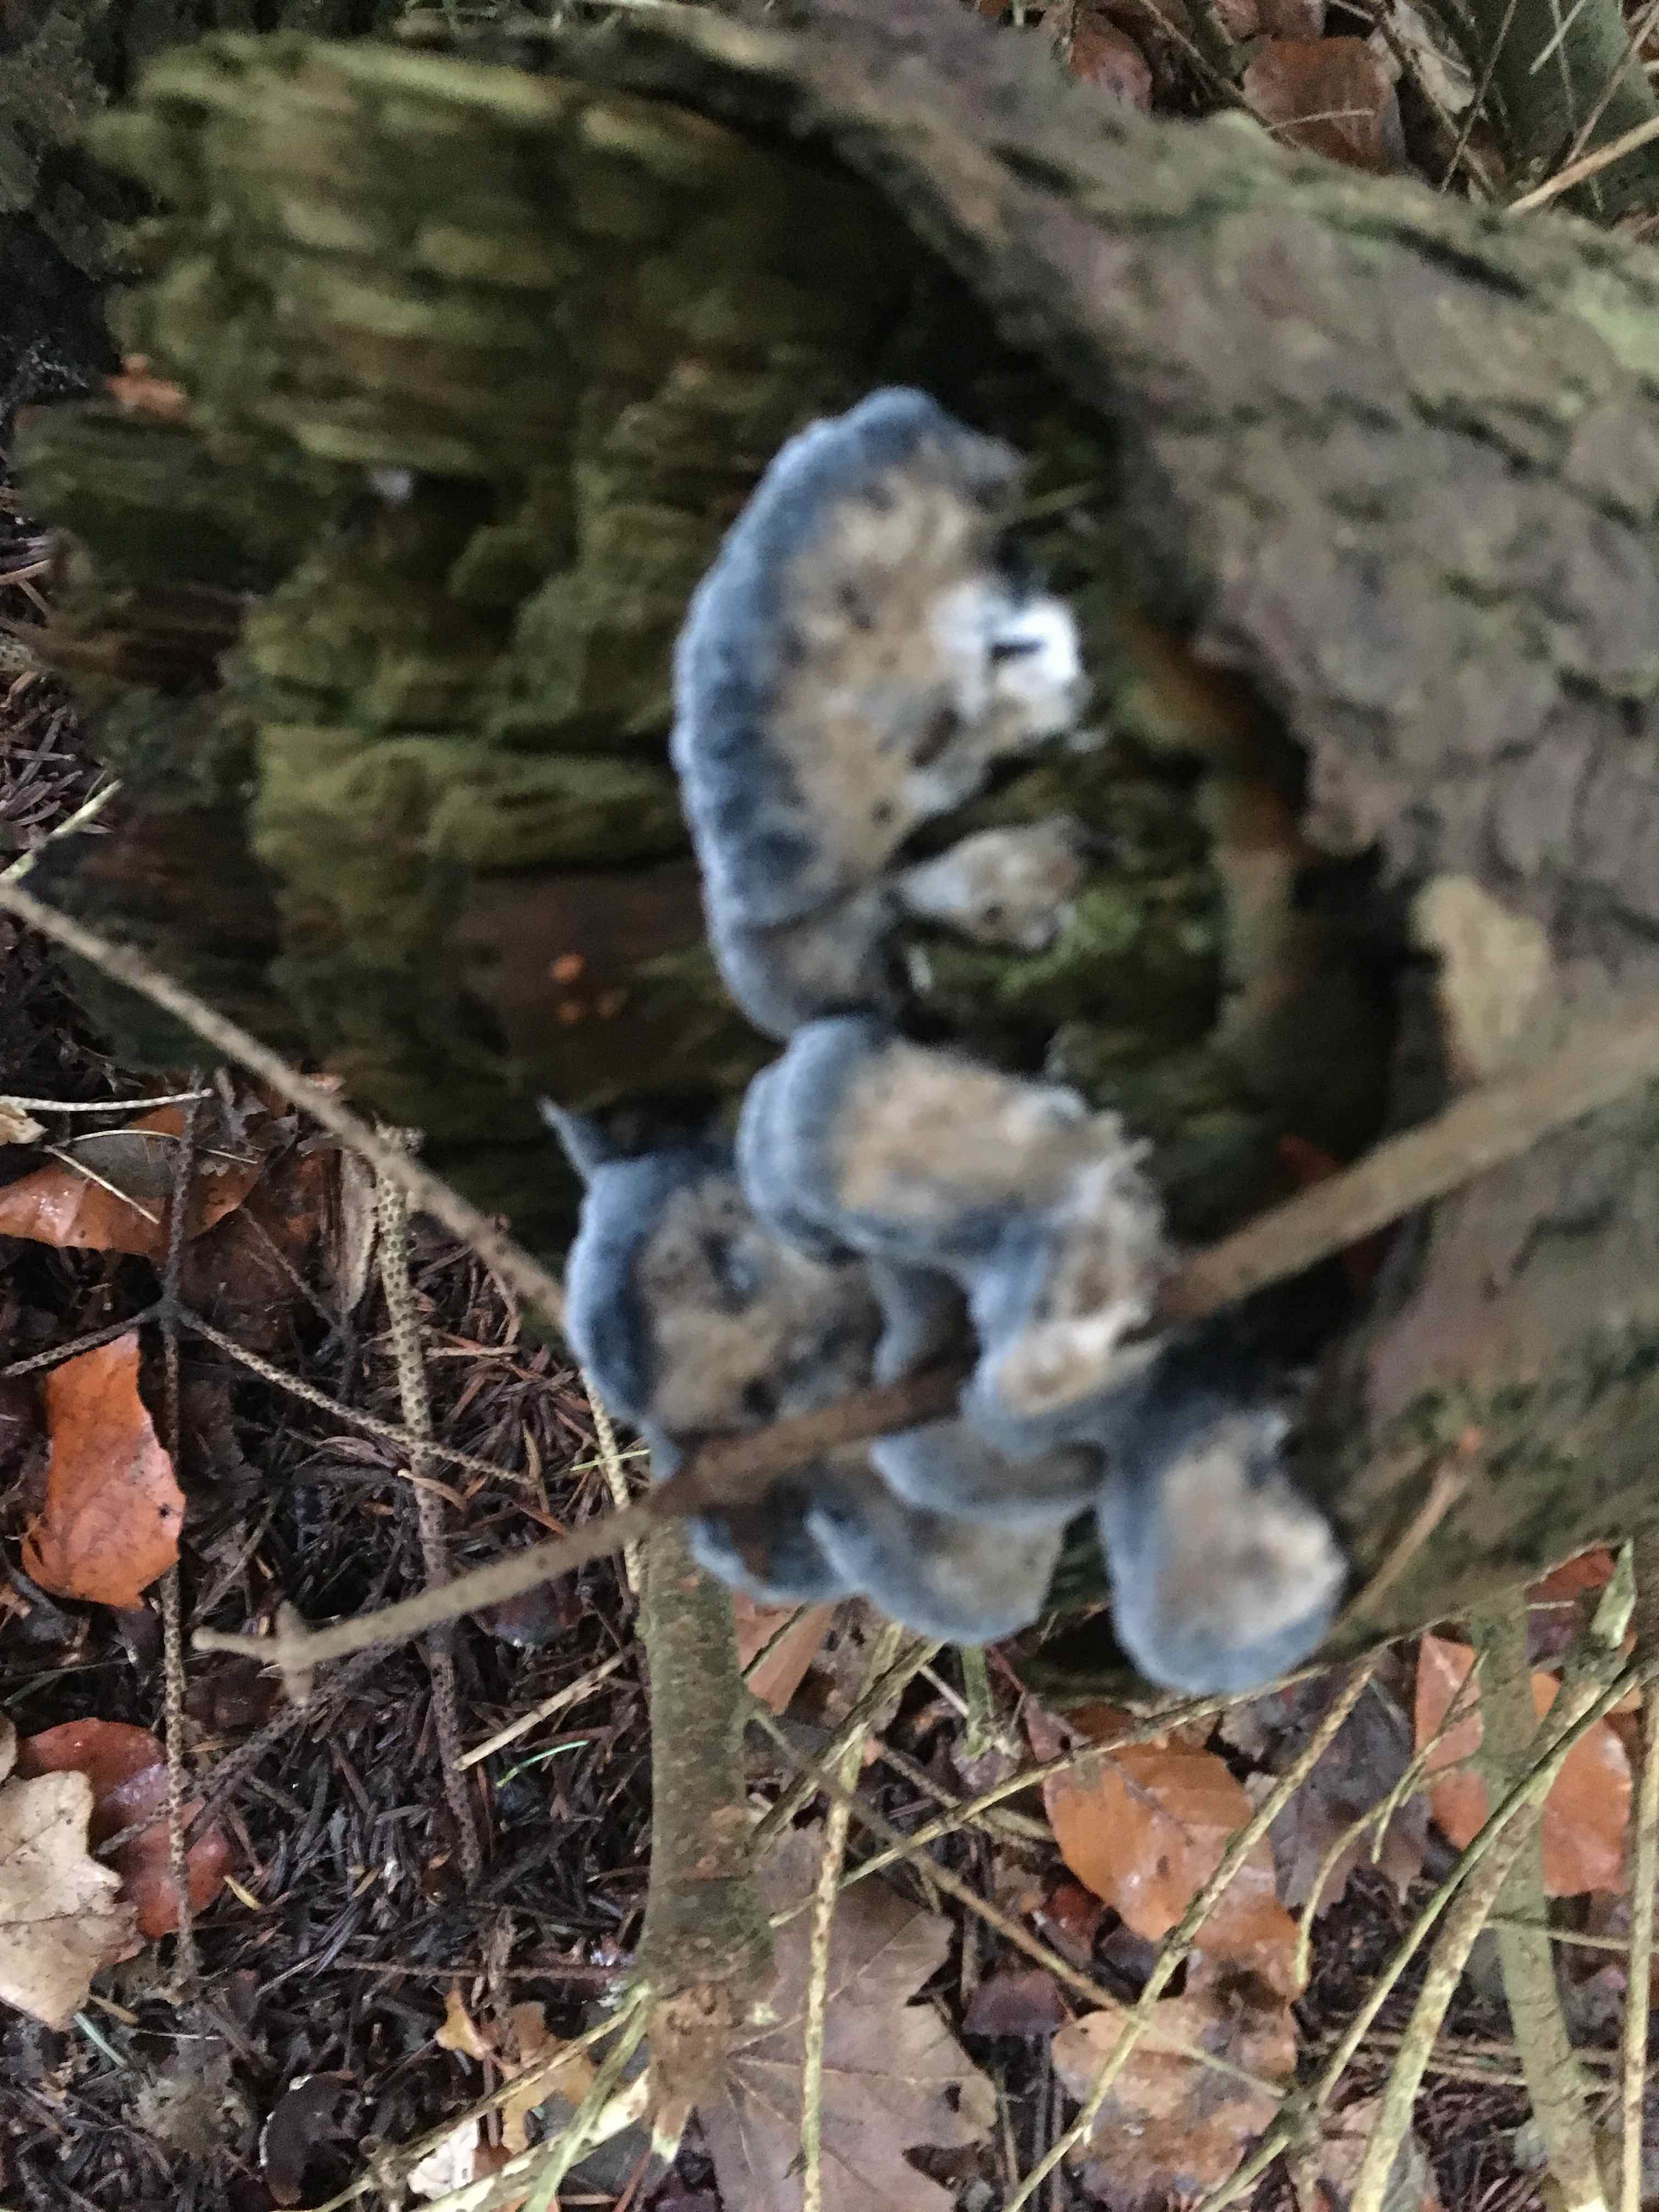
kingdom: Fungi
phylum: Basidiomycota
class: Agaricomycetes
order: Polyporales
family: Polyporaceae
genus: Cyanosporus
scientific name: Cyanosporus caesius
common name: blålig kødporesvamp
